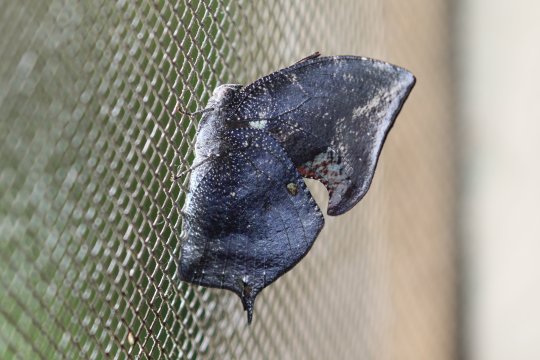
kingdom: Animalia
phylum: Arthropoda
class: Insecta
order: Lepidoptera
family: Nymphalidae
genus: Memphis
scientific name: Memphis moruus
